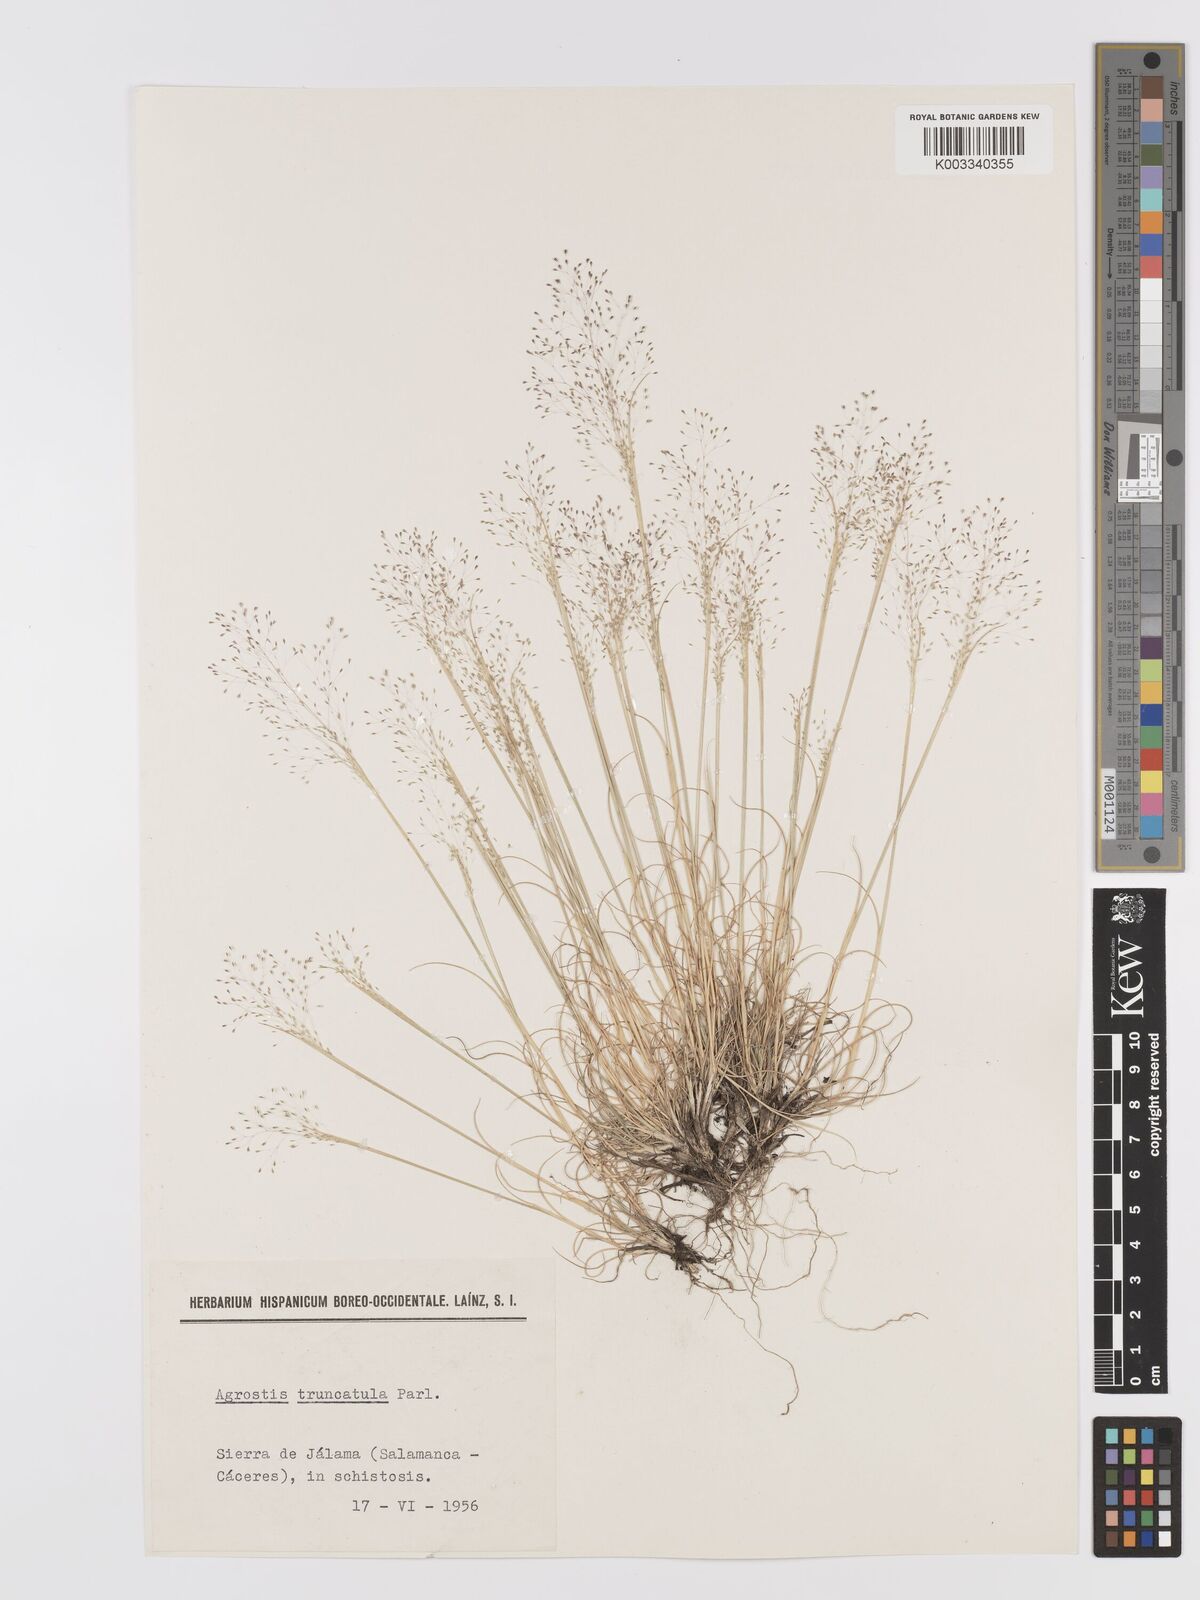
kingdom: Plantae
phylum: Tracheophyta
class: Liliopsida
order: Poales
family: Poaceae
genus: Agrostis
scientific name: Agrostis castellana
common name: Highland bent
